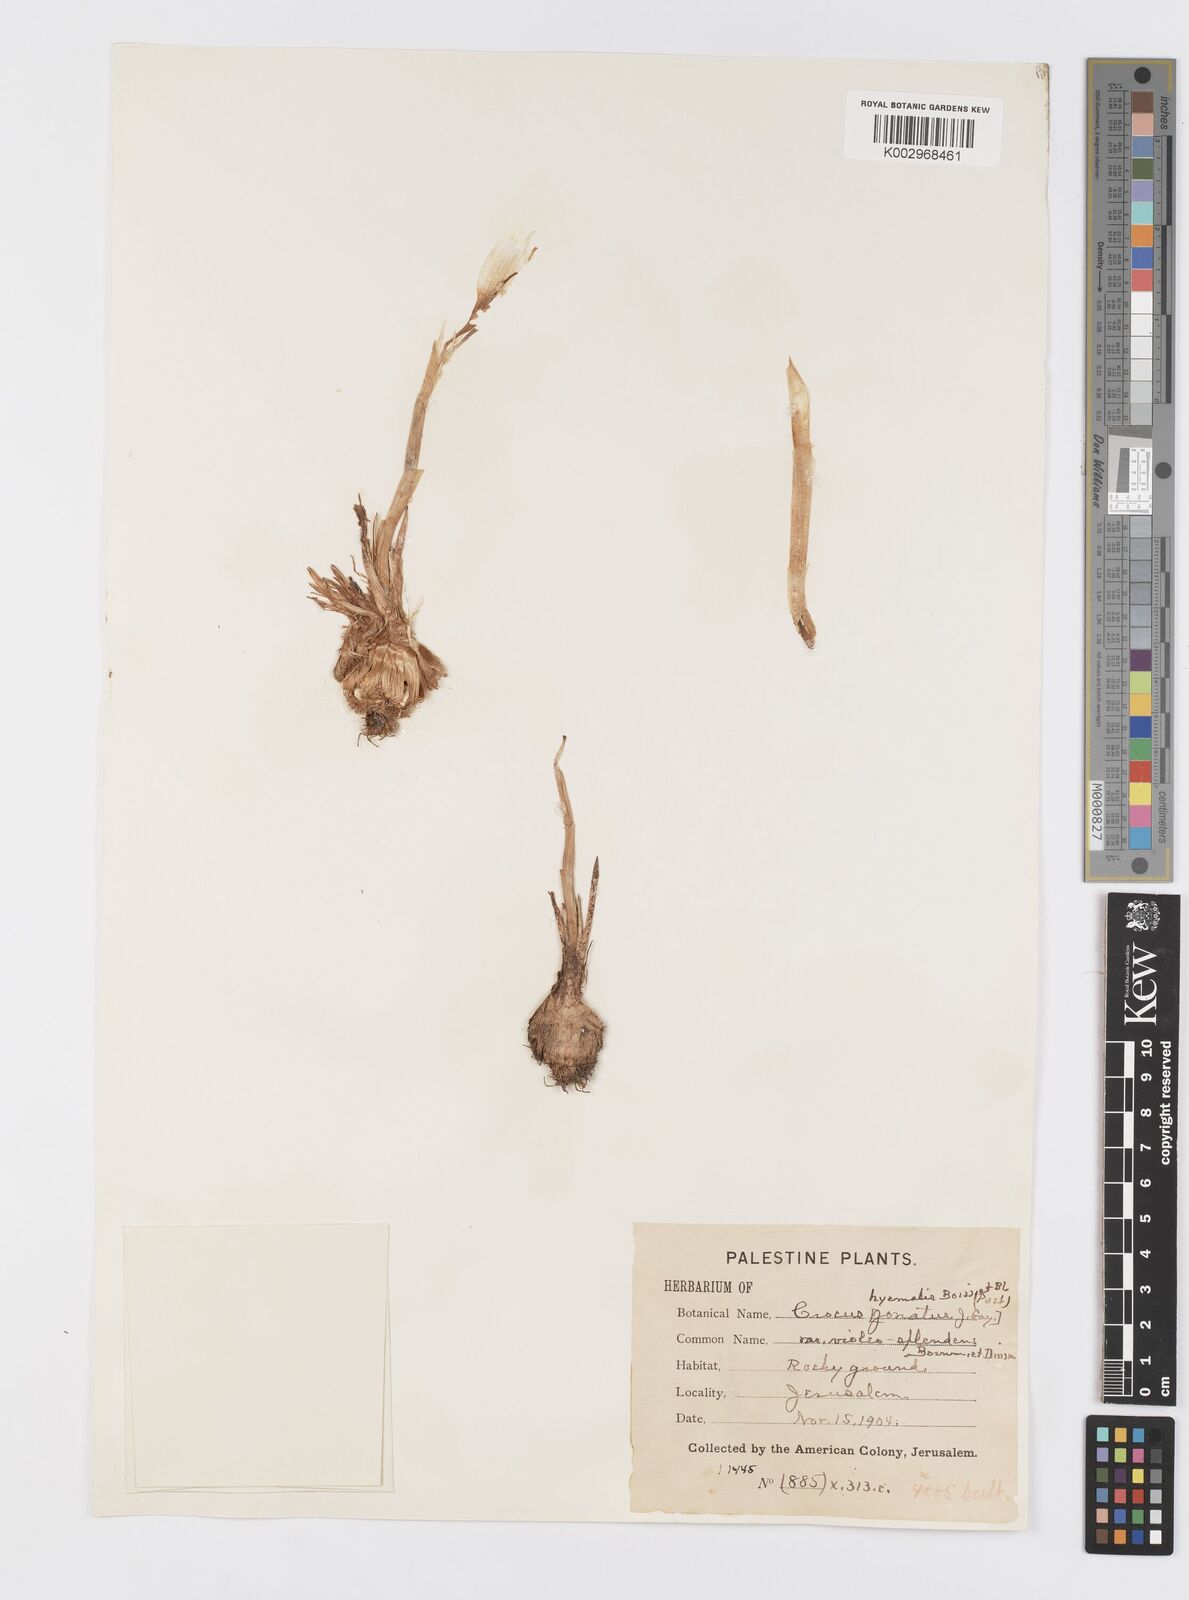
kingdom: Plantae
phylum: Tracheophyta
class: Liliopsida
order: Asparagales
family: Iridaceae
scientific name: Iridaceae
